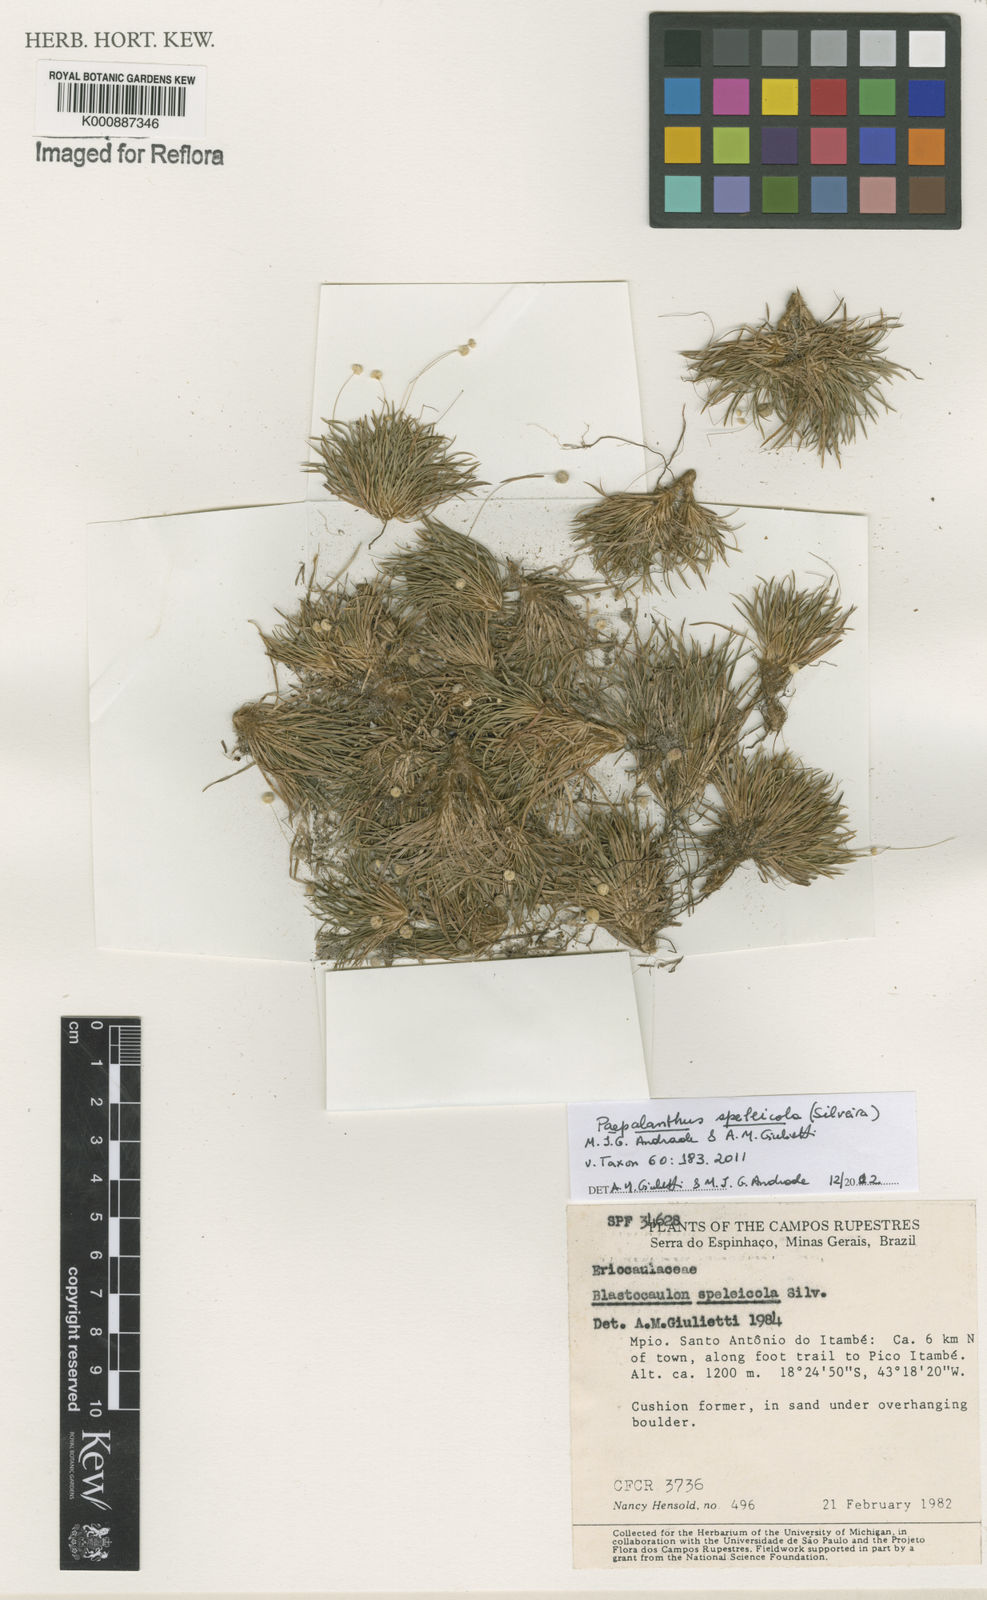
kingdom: Plantae
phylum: Tracheophyta
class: Liliopsida
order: Poales
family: Eriocaulaceae
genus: Paepalanthus
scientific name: Paepalanthus speleicola
